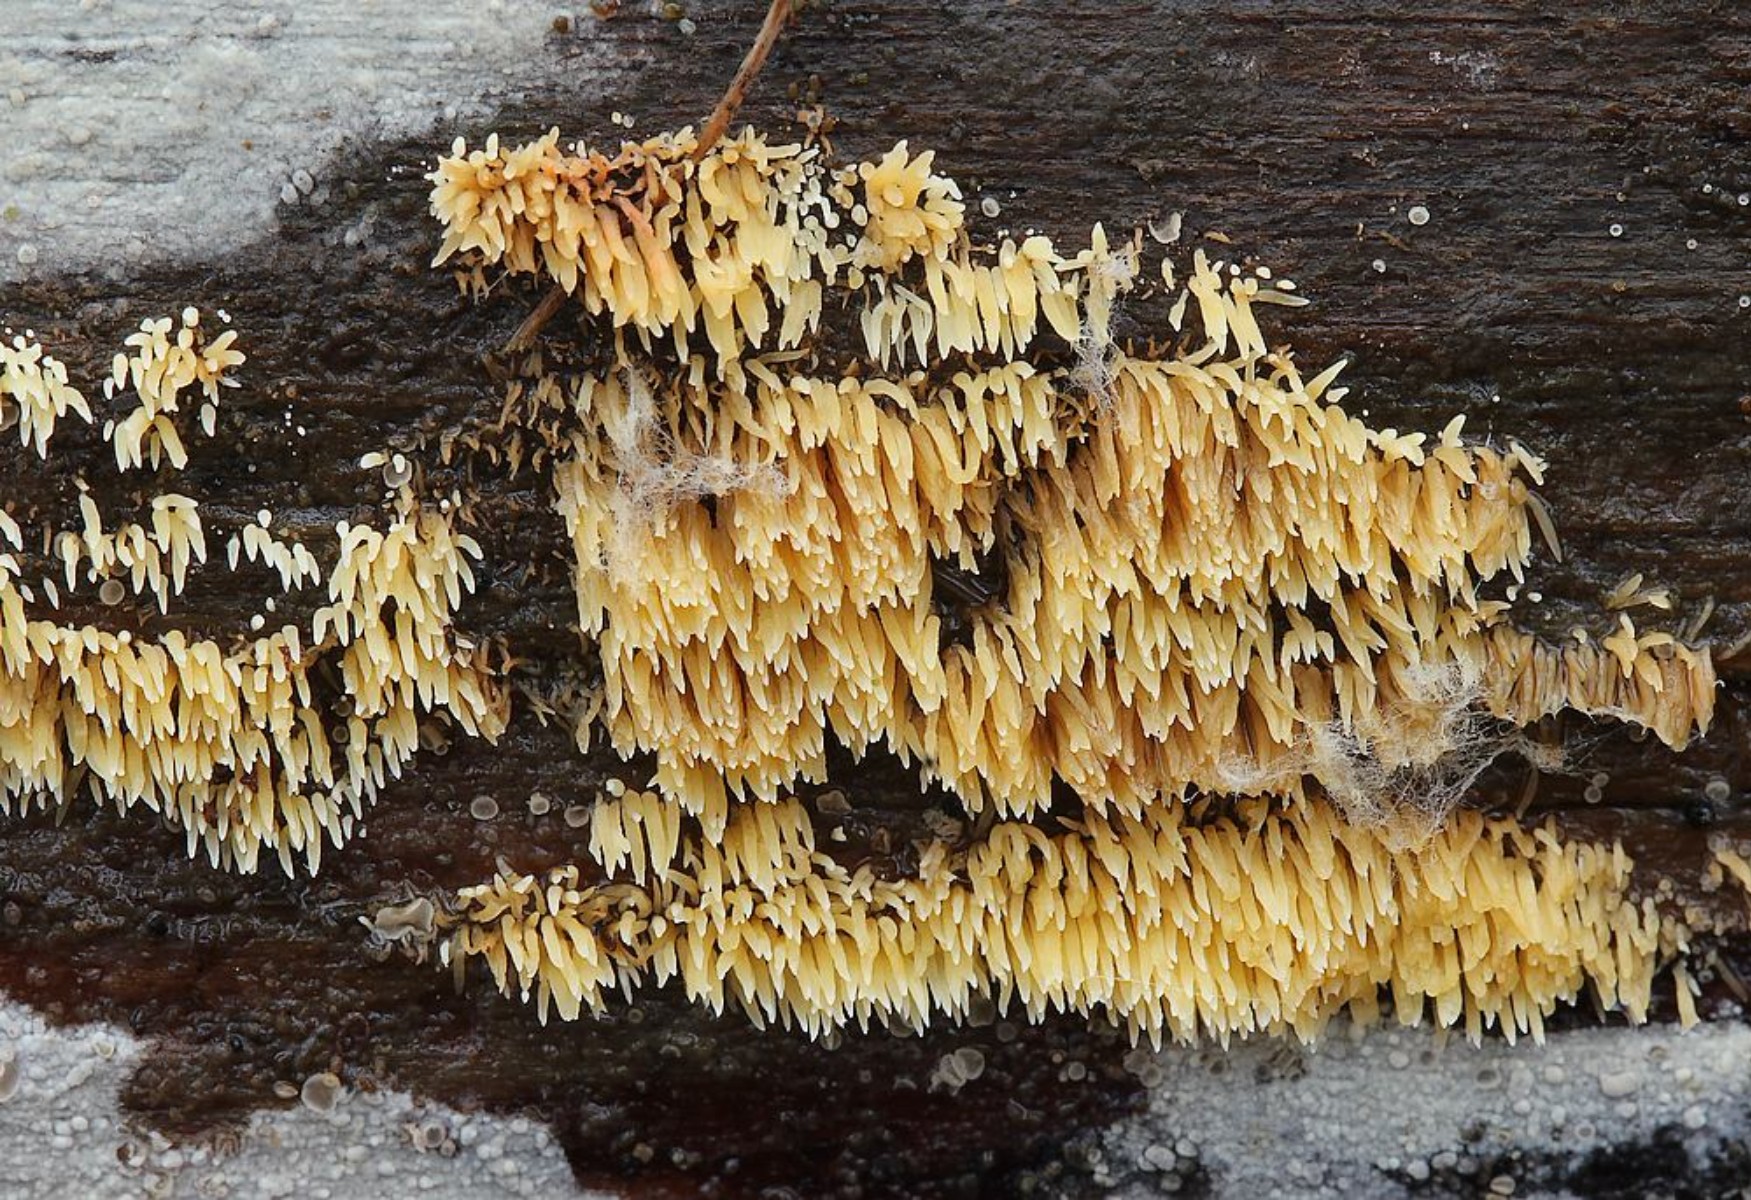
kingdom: Fungi
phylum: Basidiomycota
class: Agaricomycetes
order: Agaricales
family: Clavariaceae
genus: Mucronella
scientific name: Mucronella flava
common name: gul hængepig
